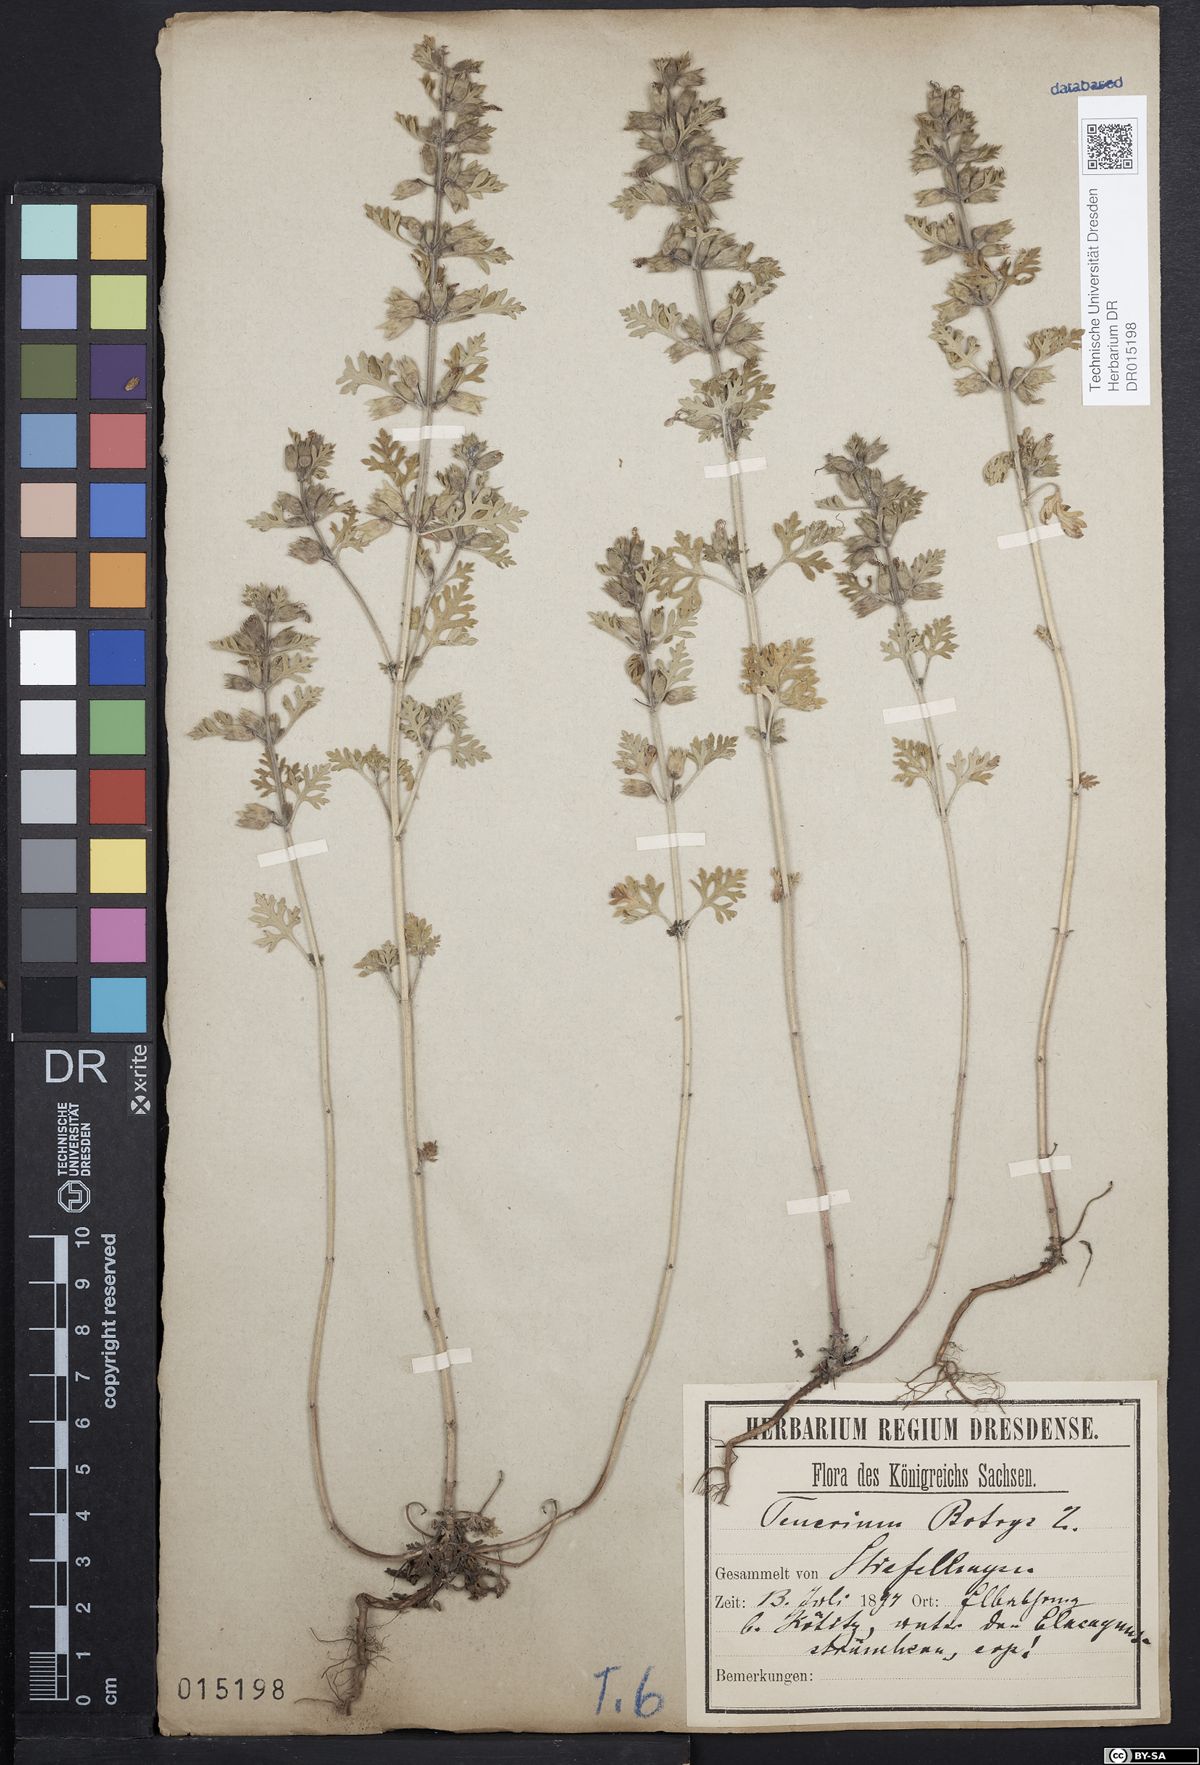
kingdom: Plantae
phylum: Tracheophyta
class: Magnoliopsida
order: Lamiales
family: Lamiaceae
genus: Teucrium
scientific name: Teucrium botrys
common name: Cut-leaved germander
